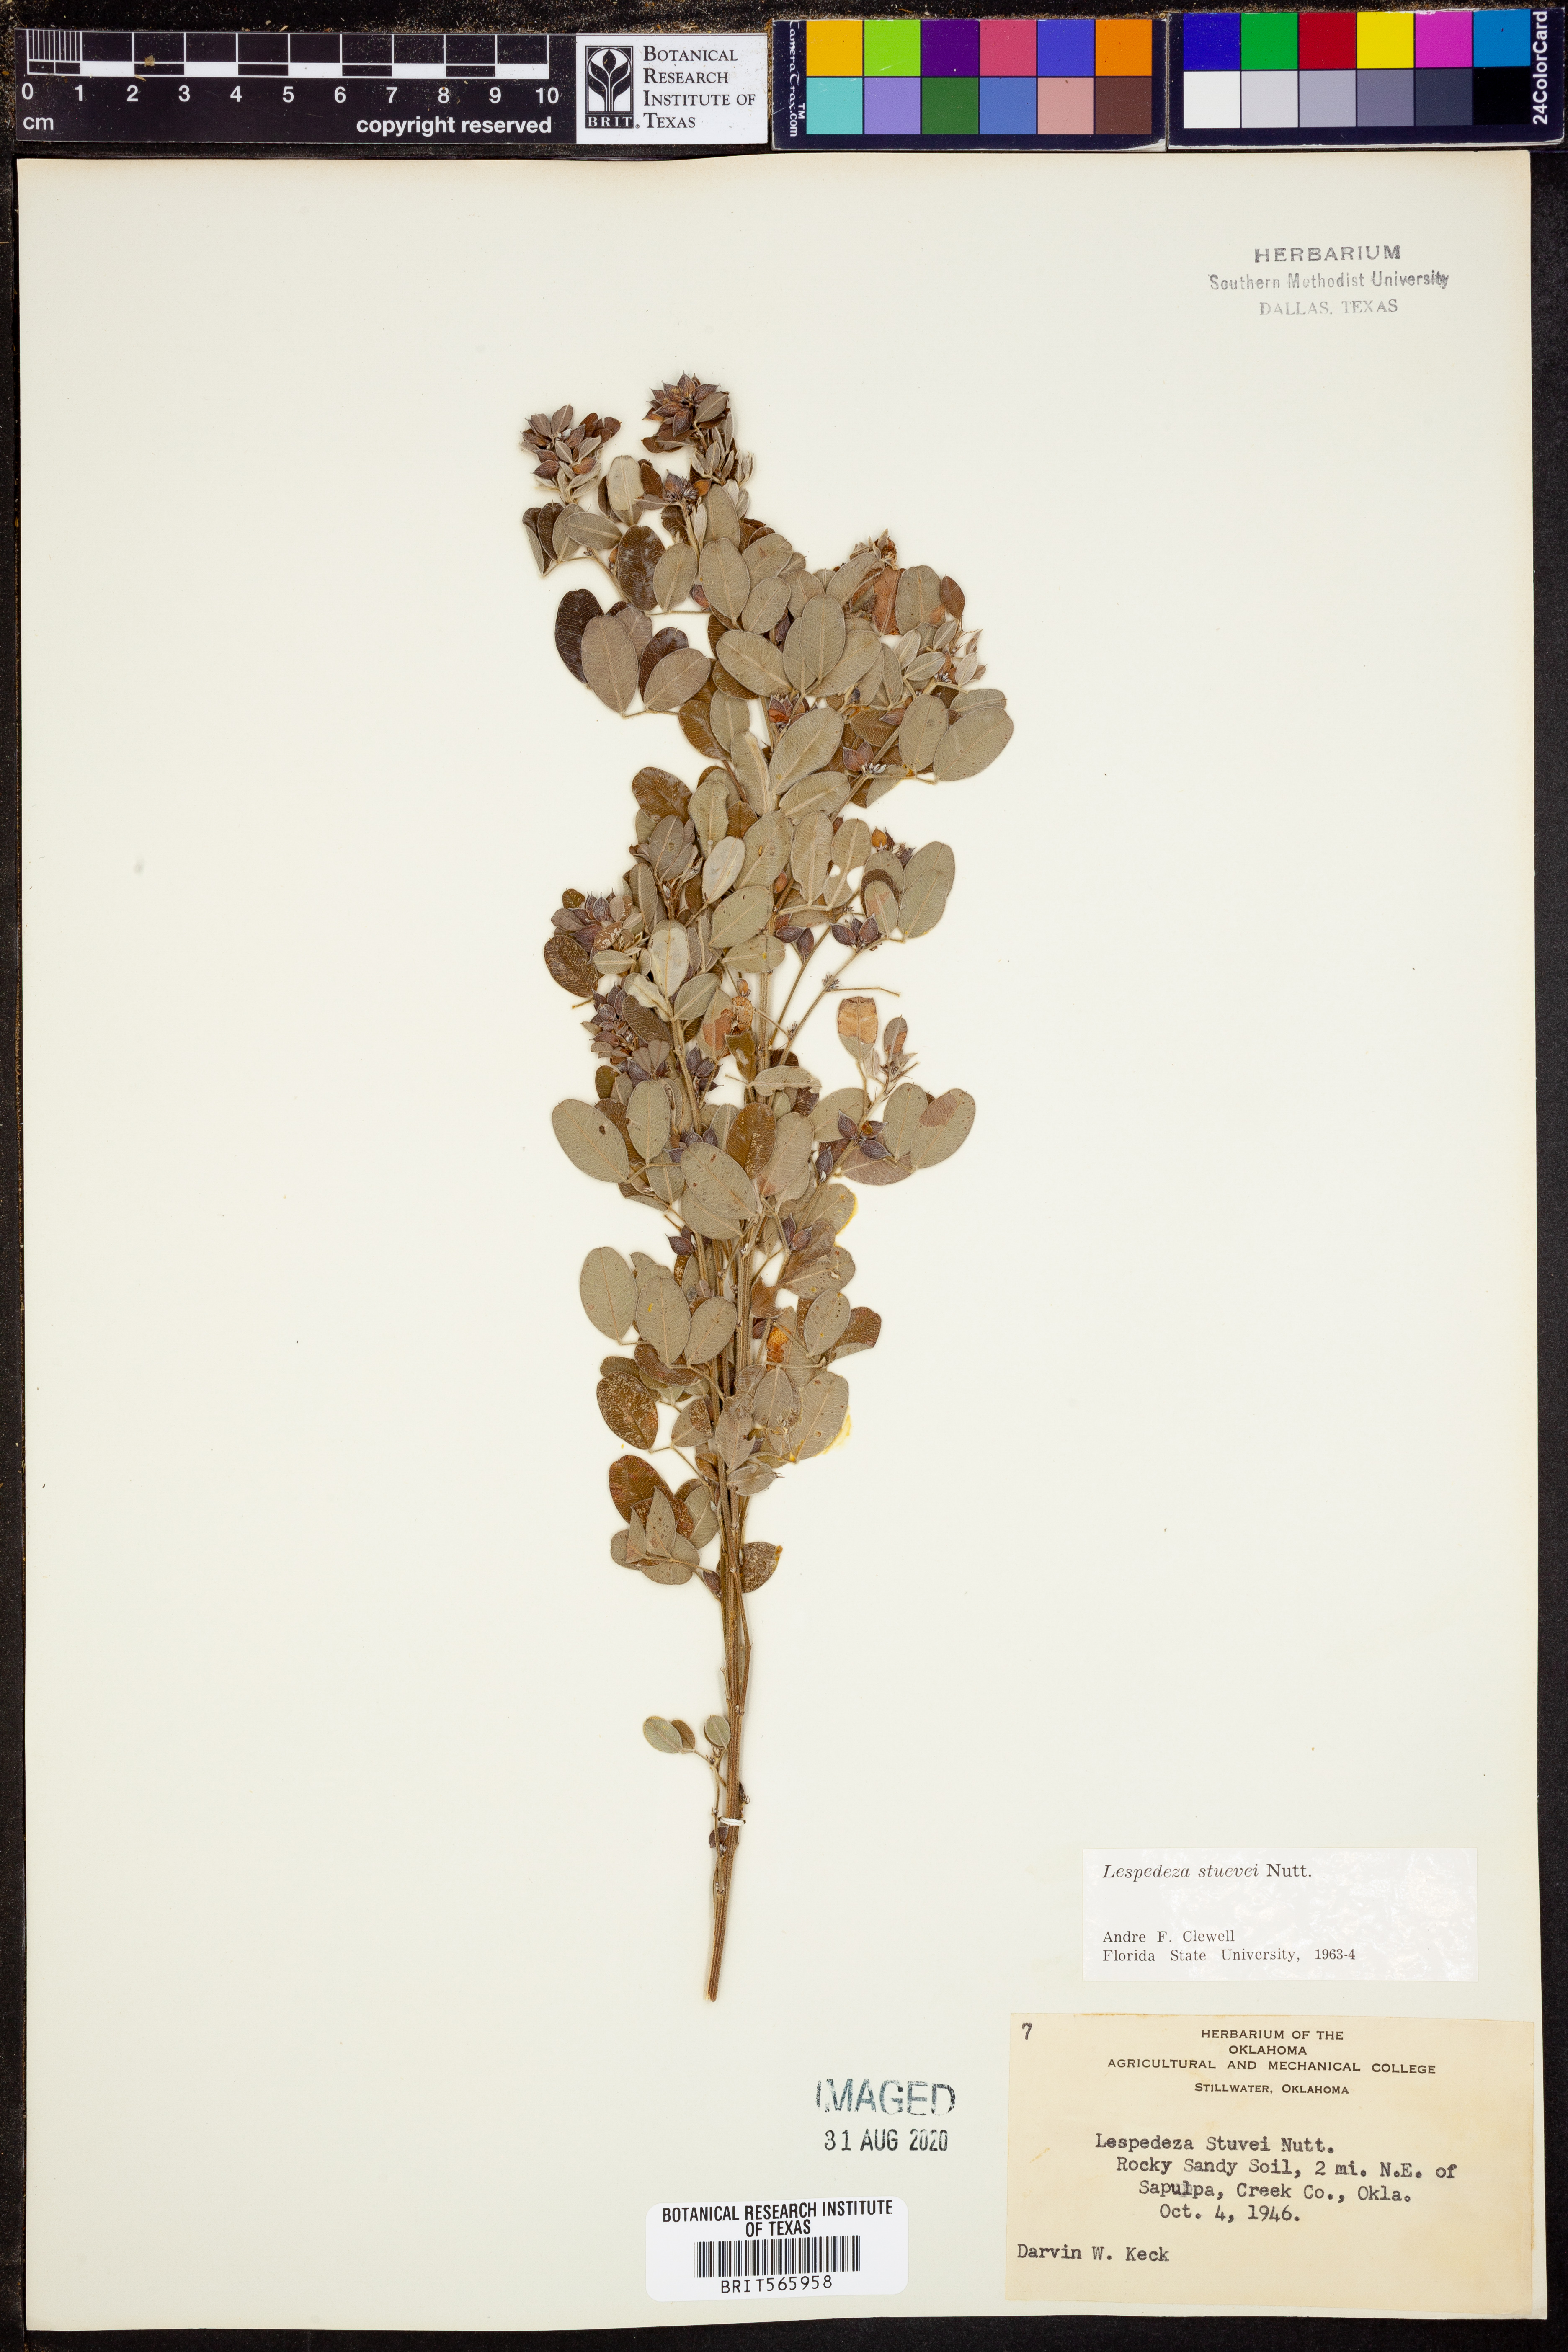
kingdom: Plantae
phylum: Tracheophyta
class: Magnoliopsida
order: Fabales
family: Fabaceae
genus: Lespedeza
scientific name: Lespedeza stuevei
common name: Tall bush-clover
